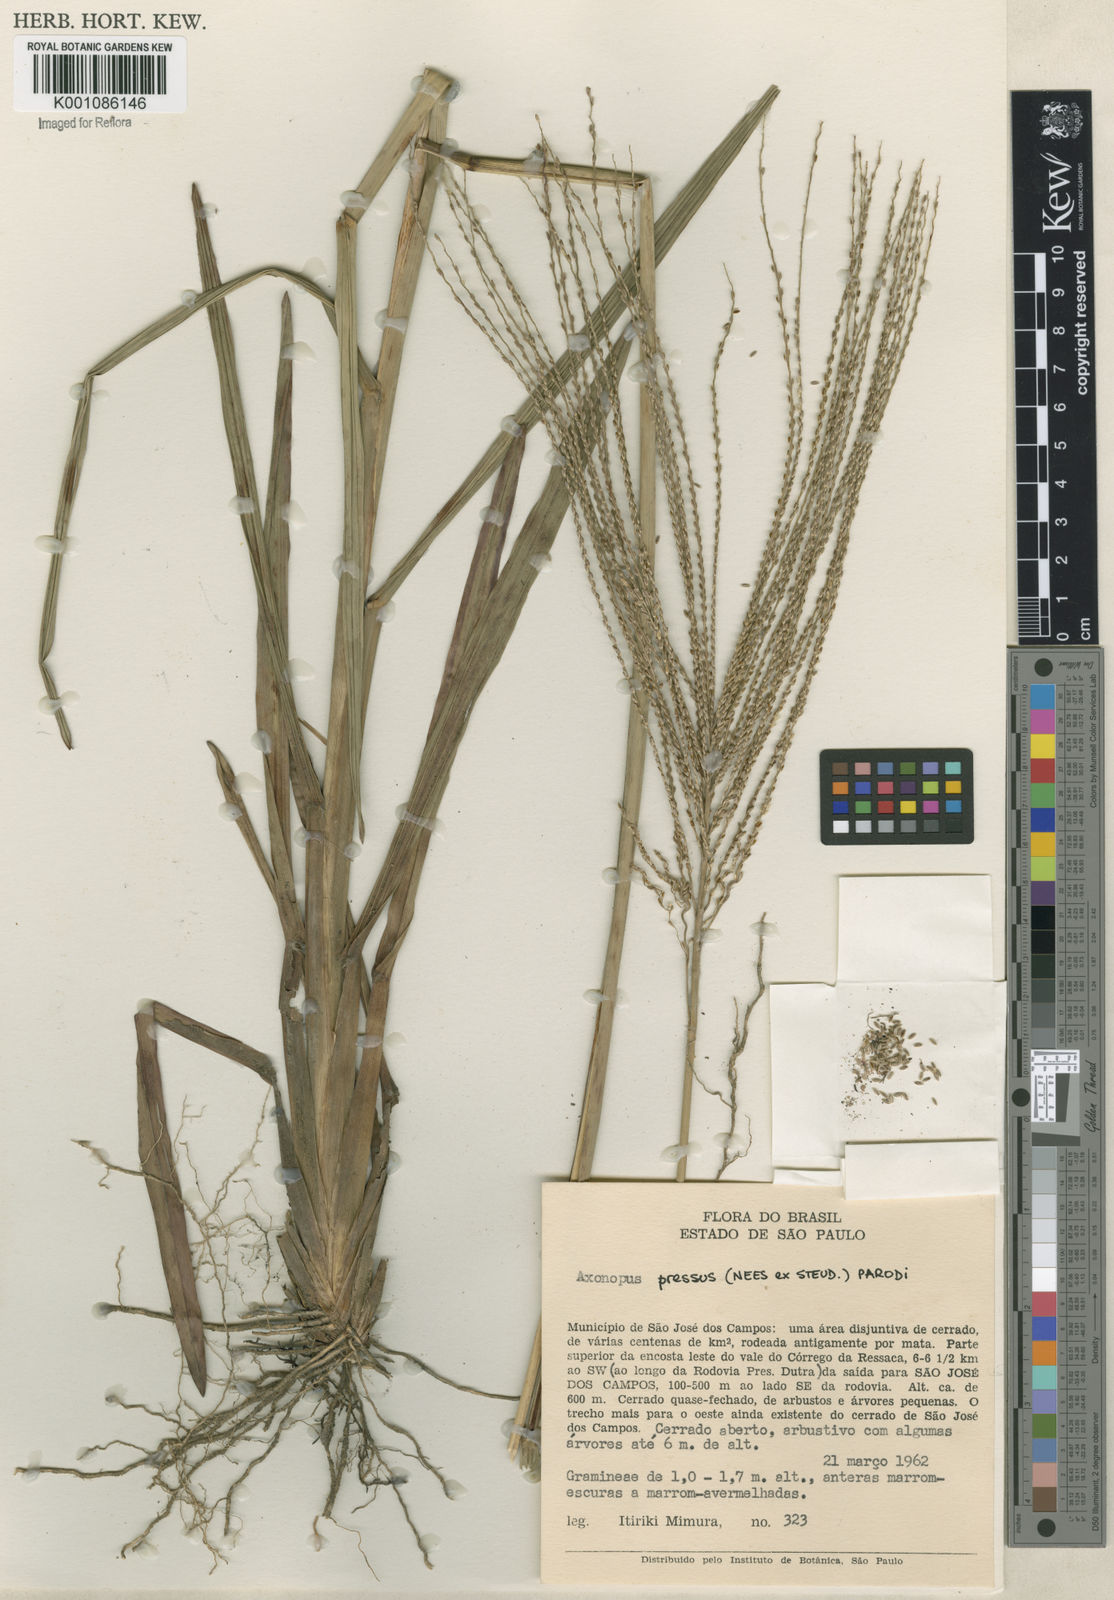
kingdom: Plantae
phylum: Tracheophyta
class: Liliopsida
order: Poales
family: Poaceae
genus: Axonopus
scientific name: Axonopus pressus
